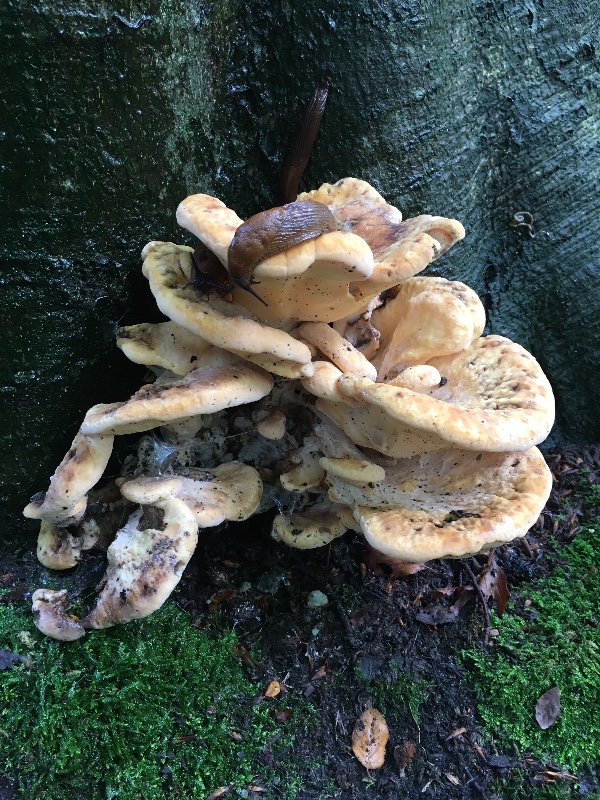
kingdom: Fungi
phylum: Basidiomycota
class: Agaricomycetes
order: Polyporales
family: Meripilaceae
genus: Meripilus
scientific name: Meripilus giganteus
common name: kæmpeporesvamp
